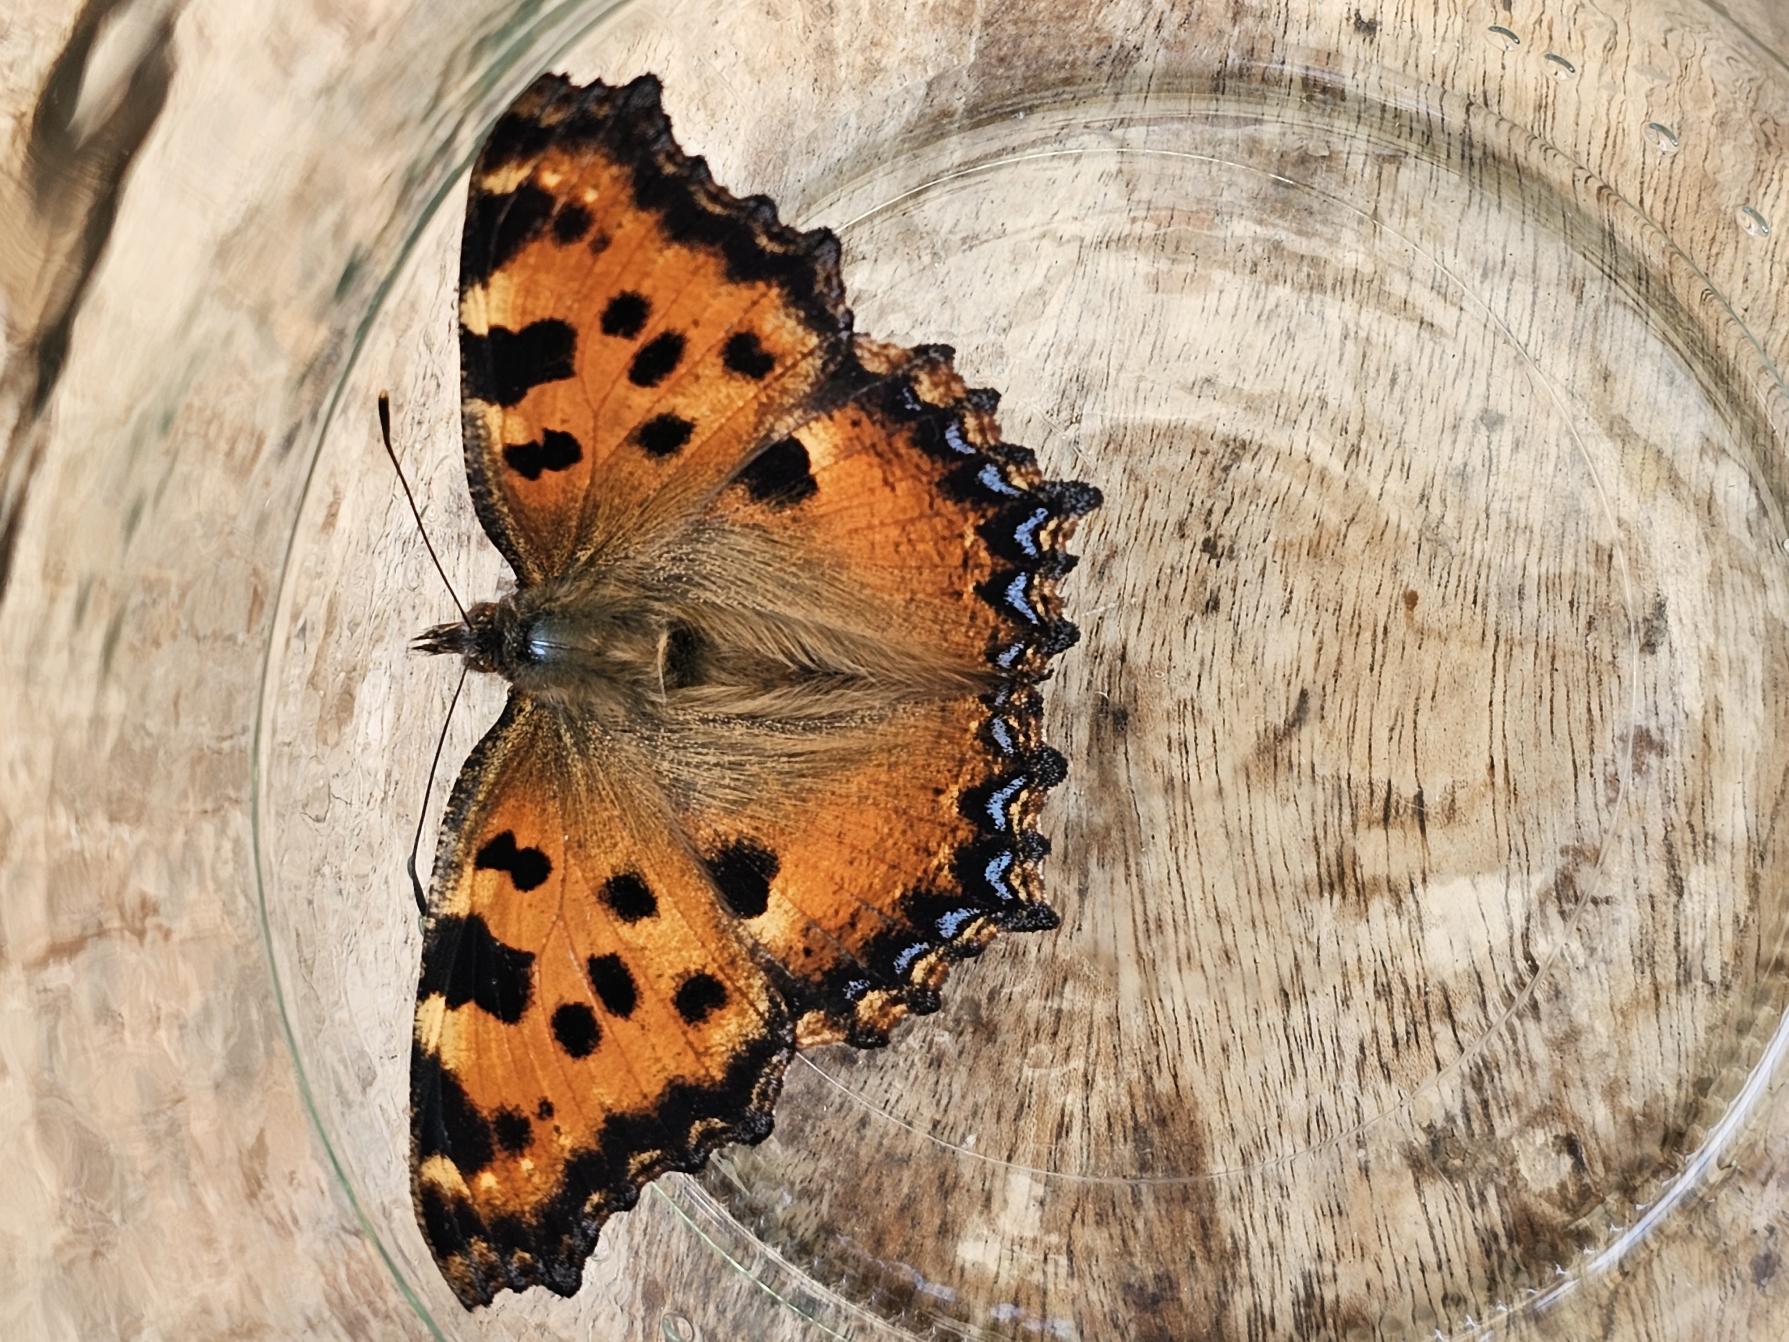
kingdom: Animalia
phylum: Arthropoda
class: Insecta
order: Lepidoptera
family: Nymphalidae
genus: Nymphalis
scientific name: Nymphalis polychloros
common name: Kirsebærtakvinge
